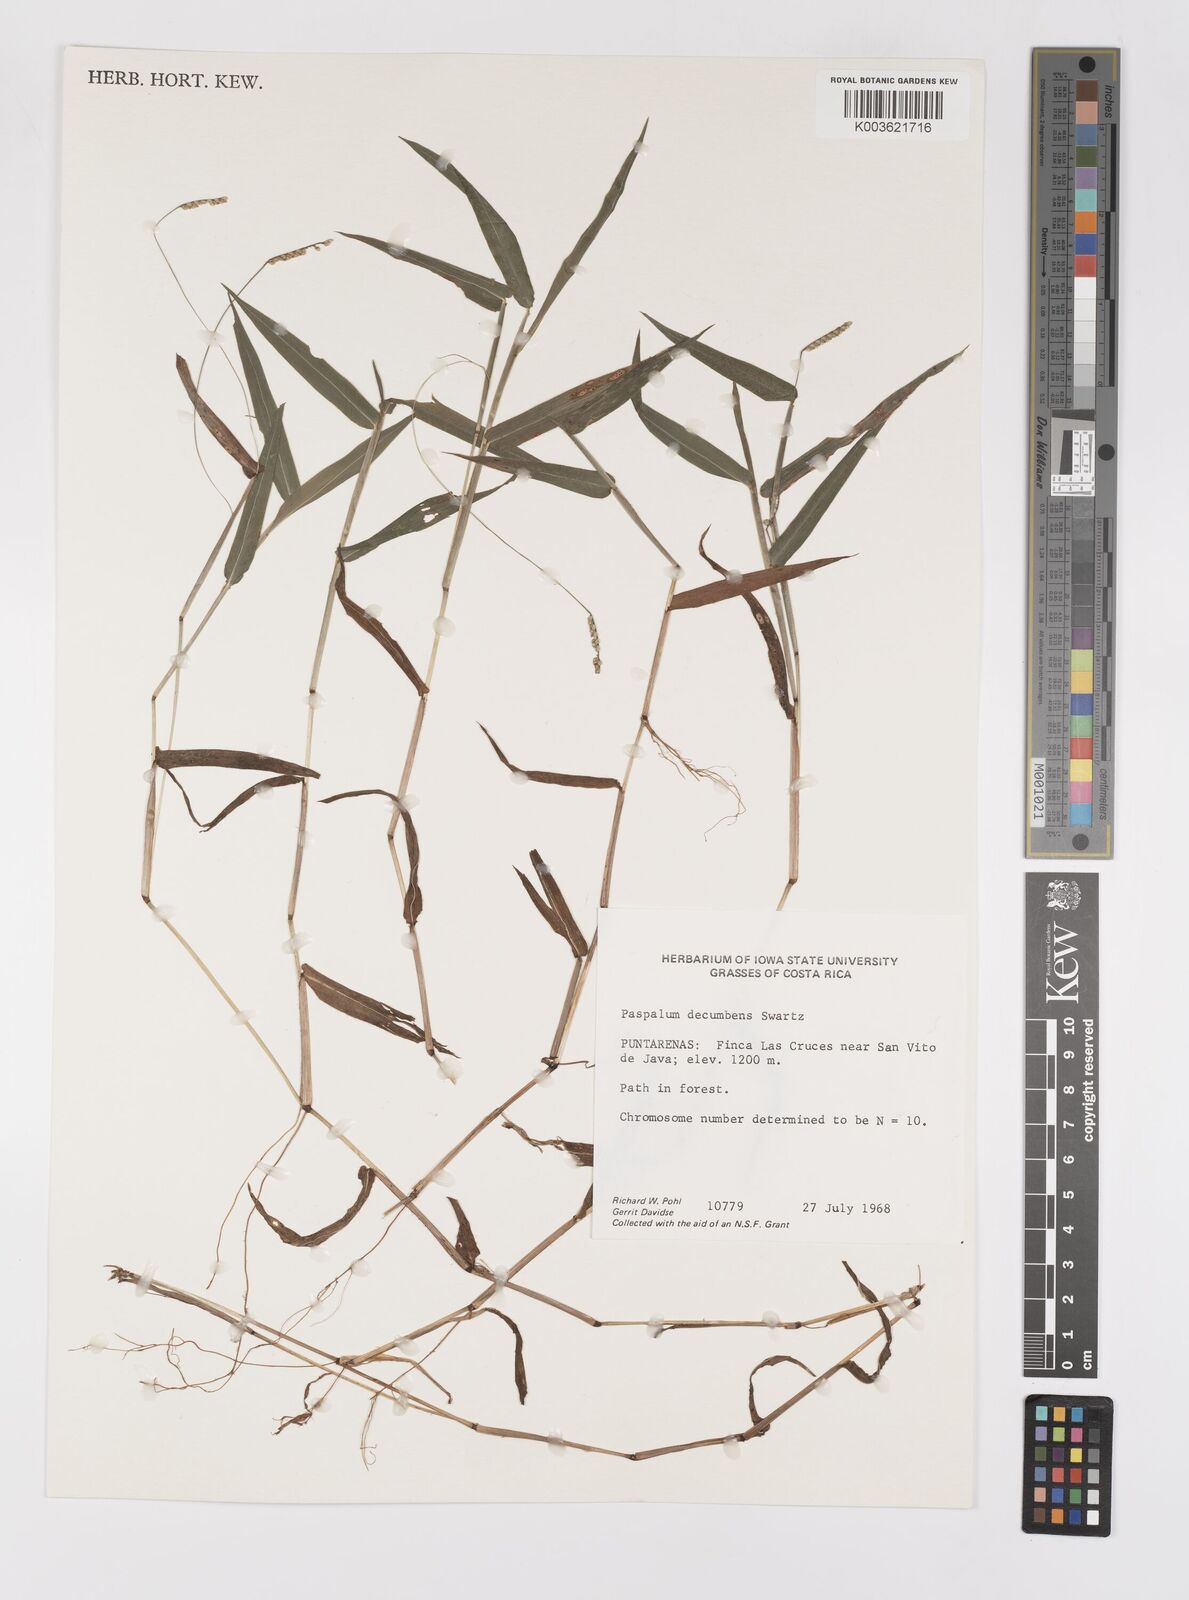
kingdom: Plantae
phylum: Tracheophyta
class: Liliopsida
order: Poales
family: Poaceae
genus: Paspalum
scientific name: Paspalum
